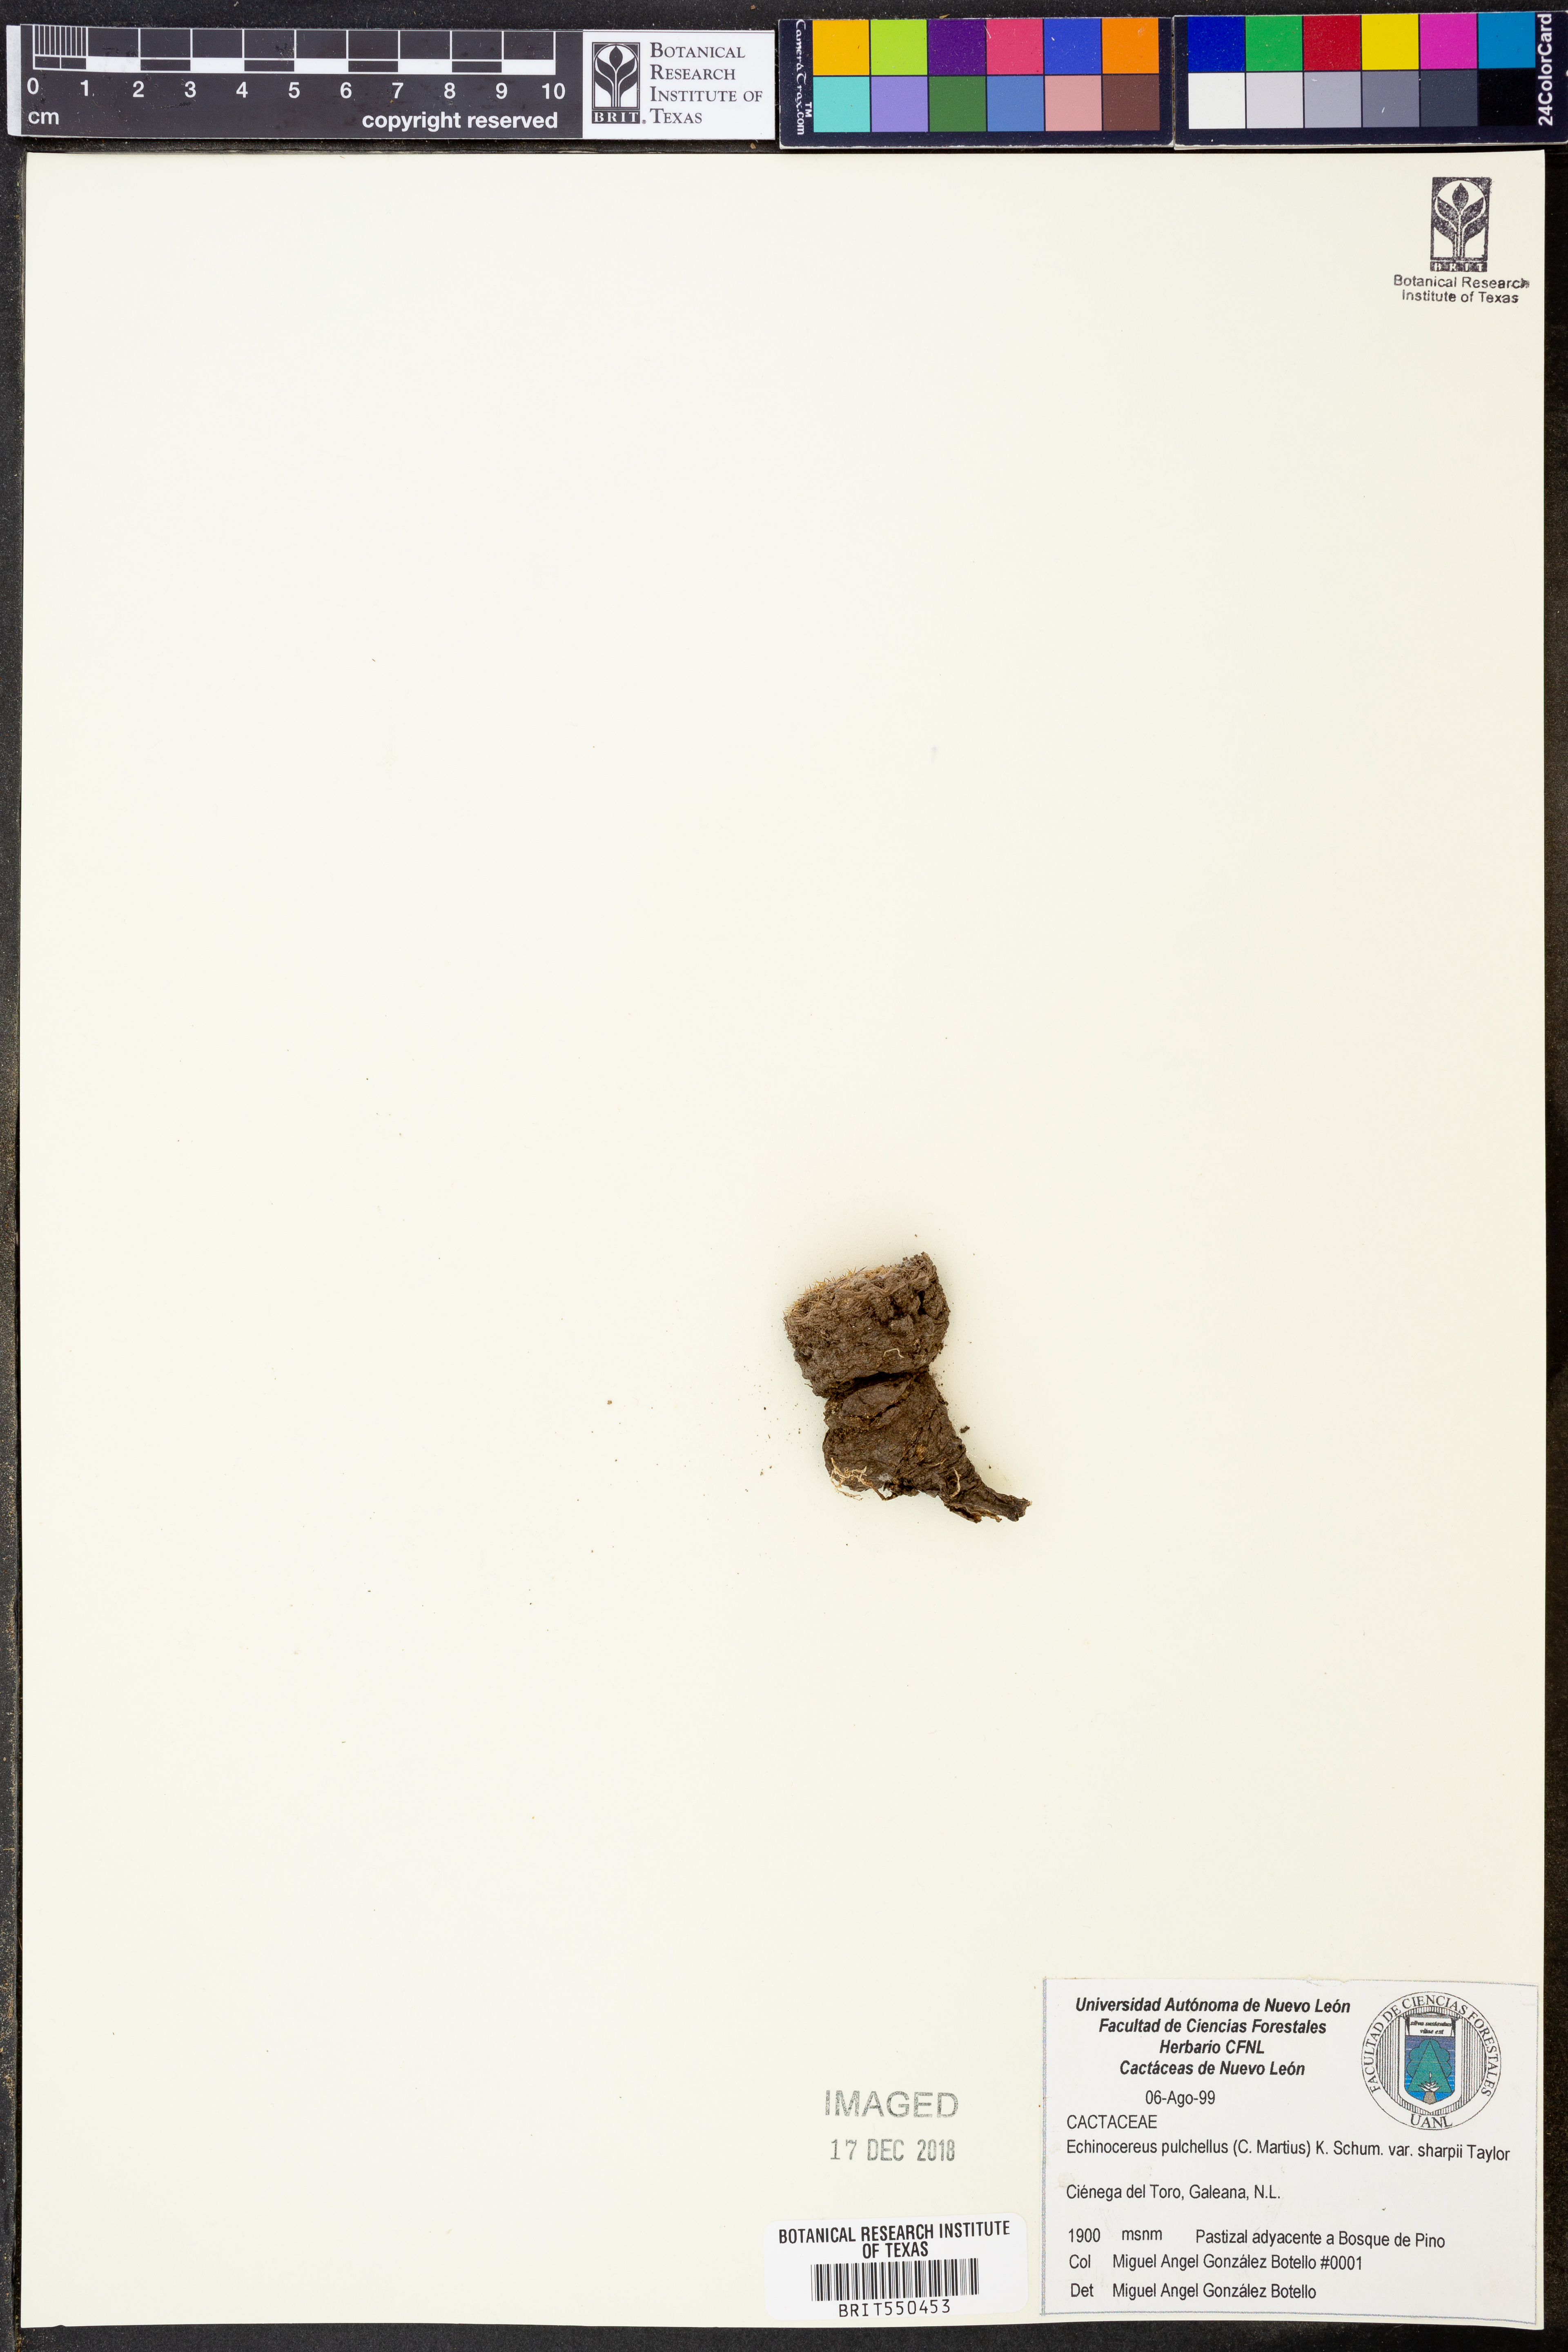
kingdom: Plantae
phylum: Tracheophyta
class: Magnoliopsida
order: Caryophyllales
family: Cactaceae
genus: Echinocereus
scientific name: Echinocereus sharpii
